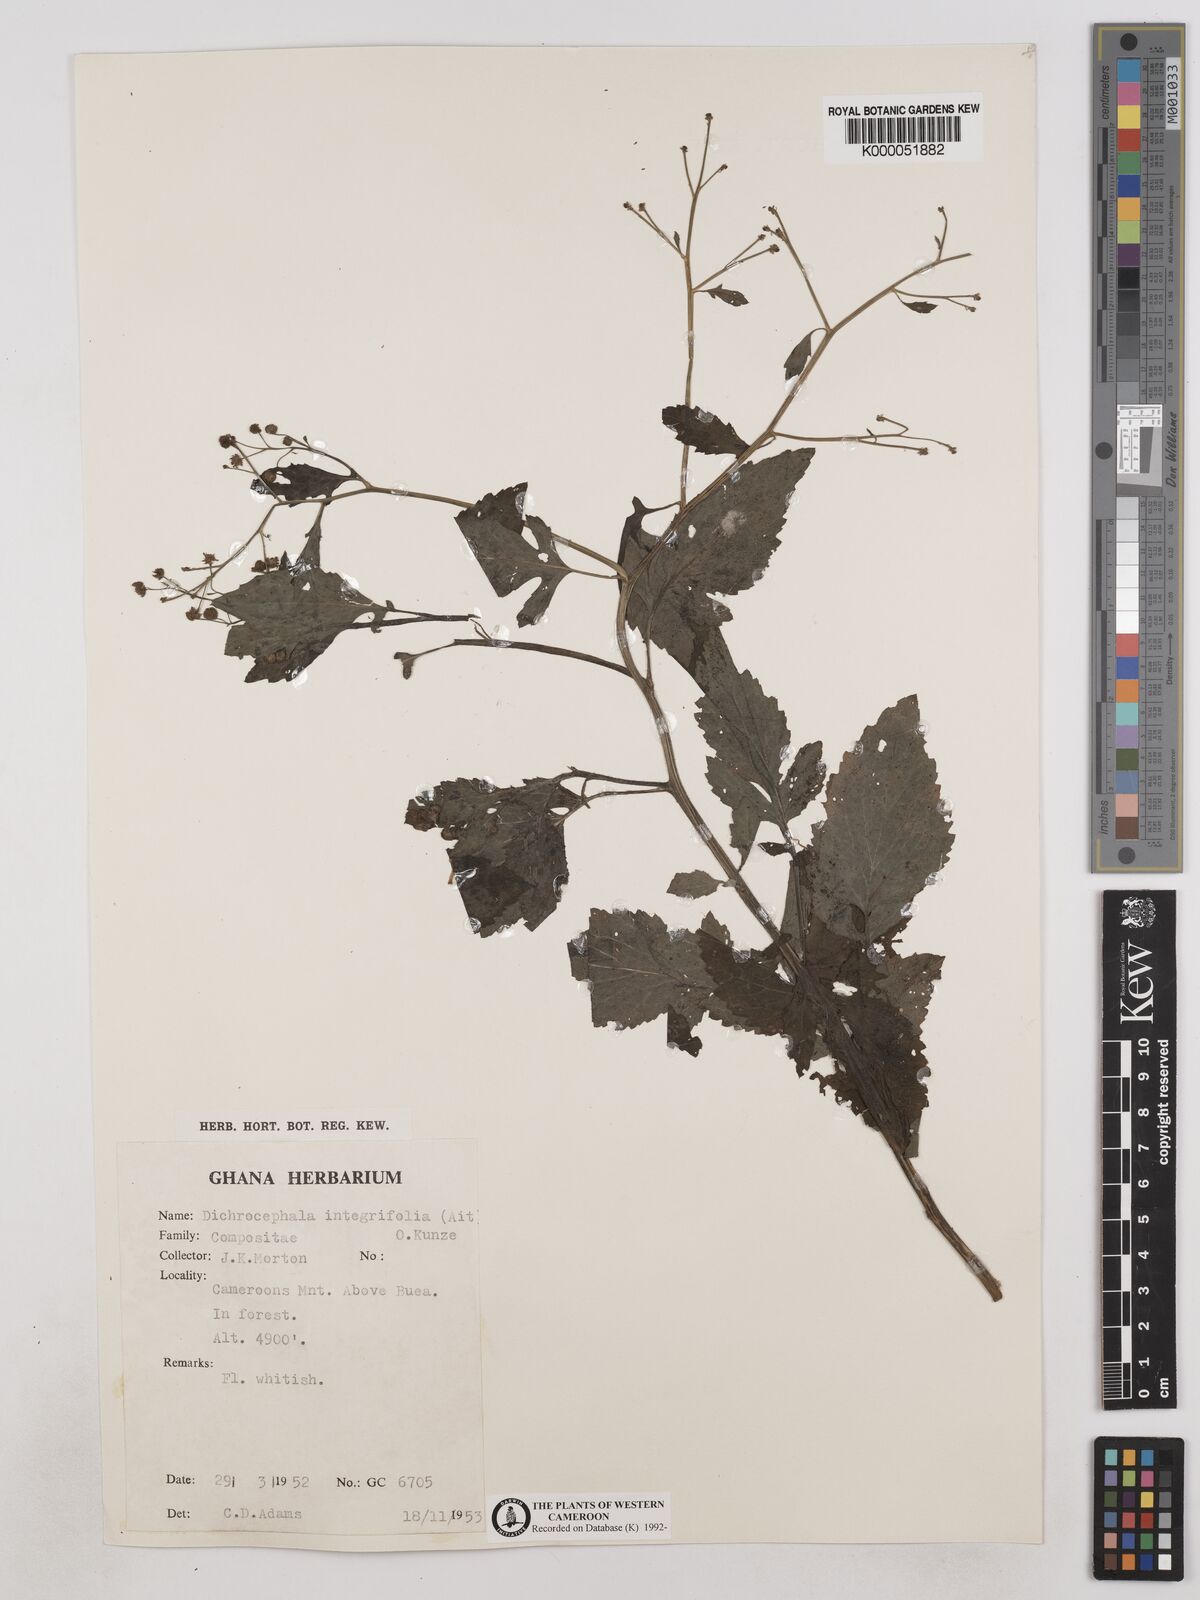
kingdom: Plantae
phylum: Tracheophyta
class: Magnoliopsida
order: Asterales
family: Asteraceae
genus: Dichrocephala
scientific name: Dichrocephala integrifolia
